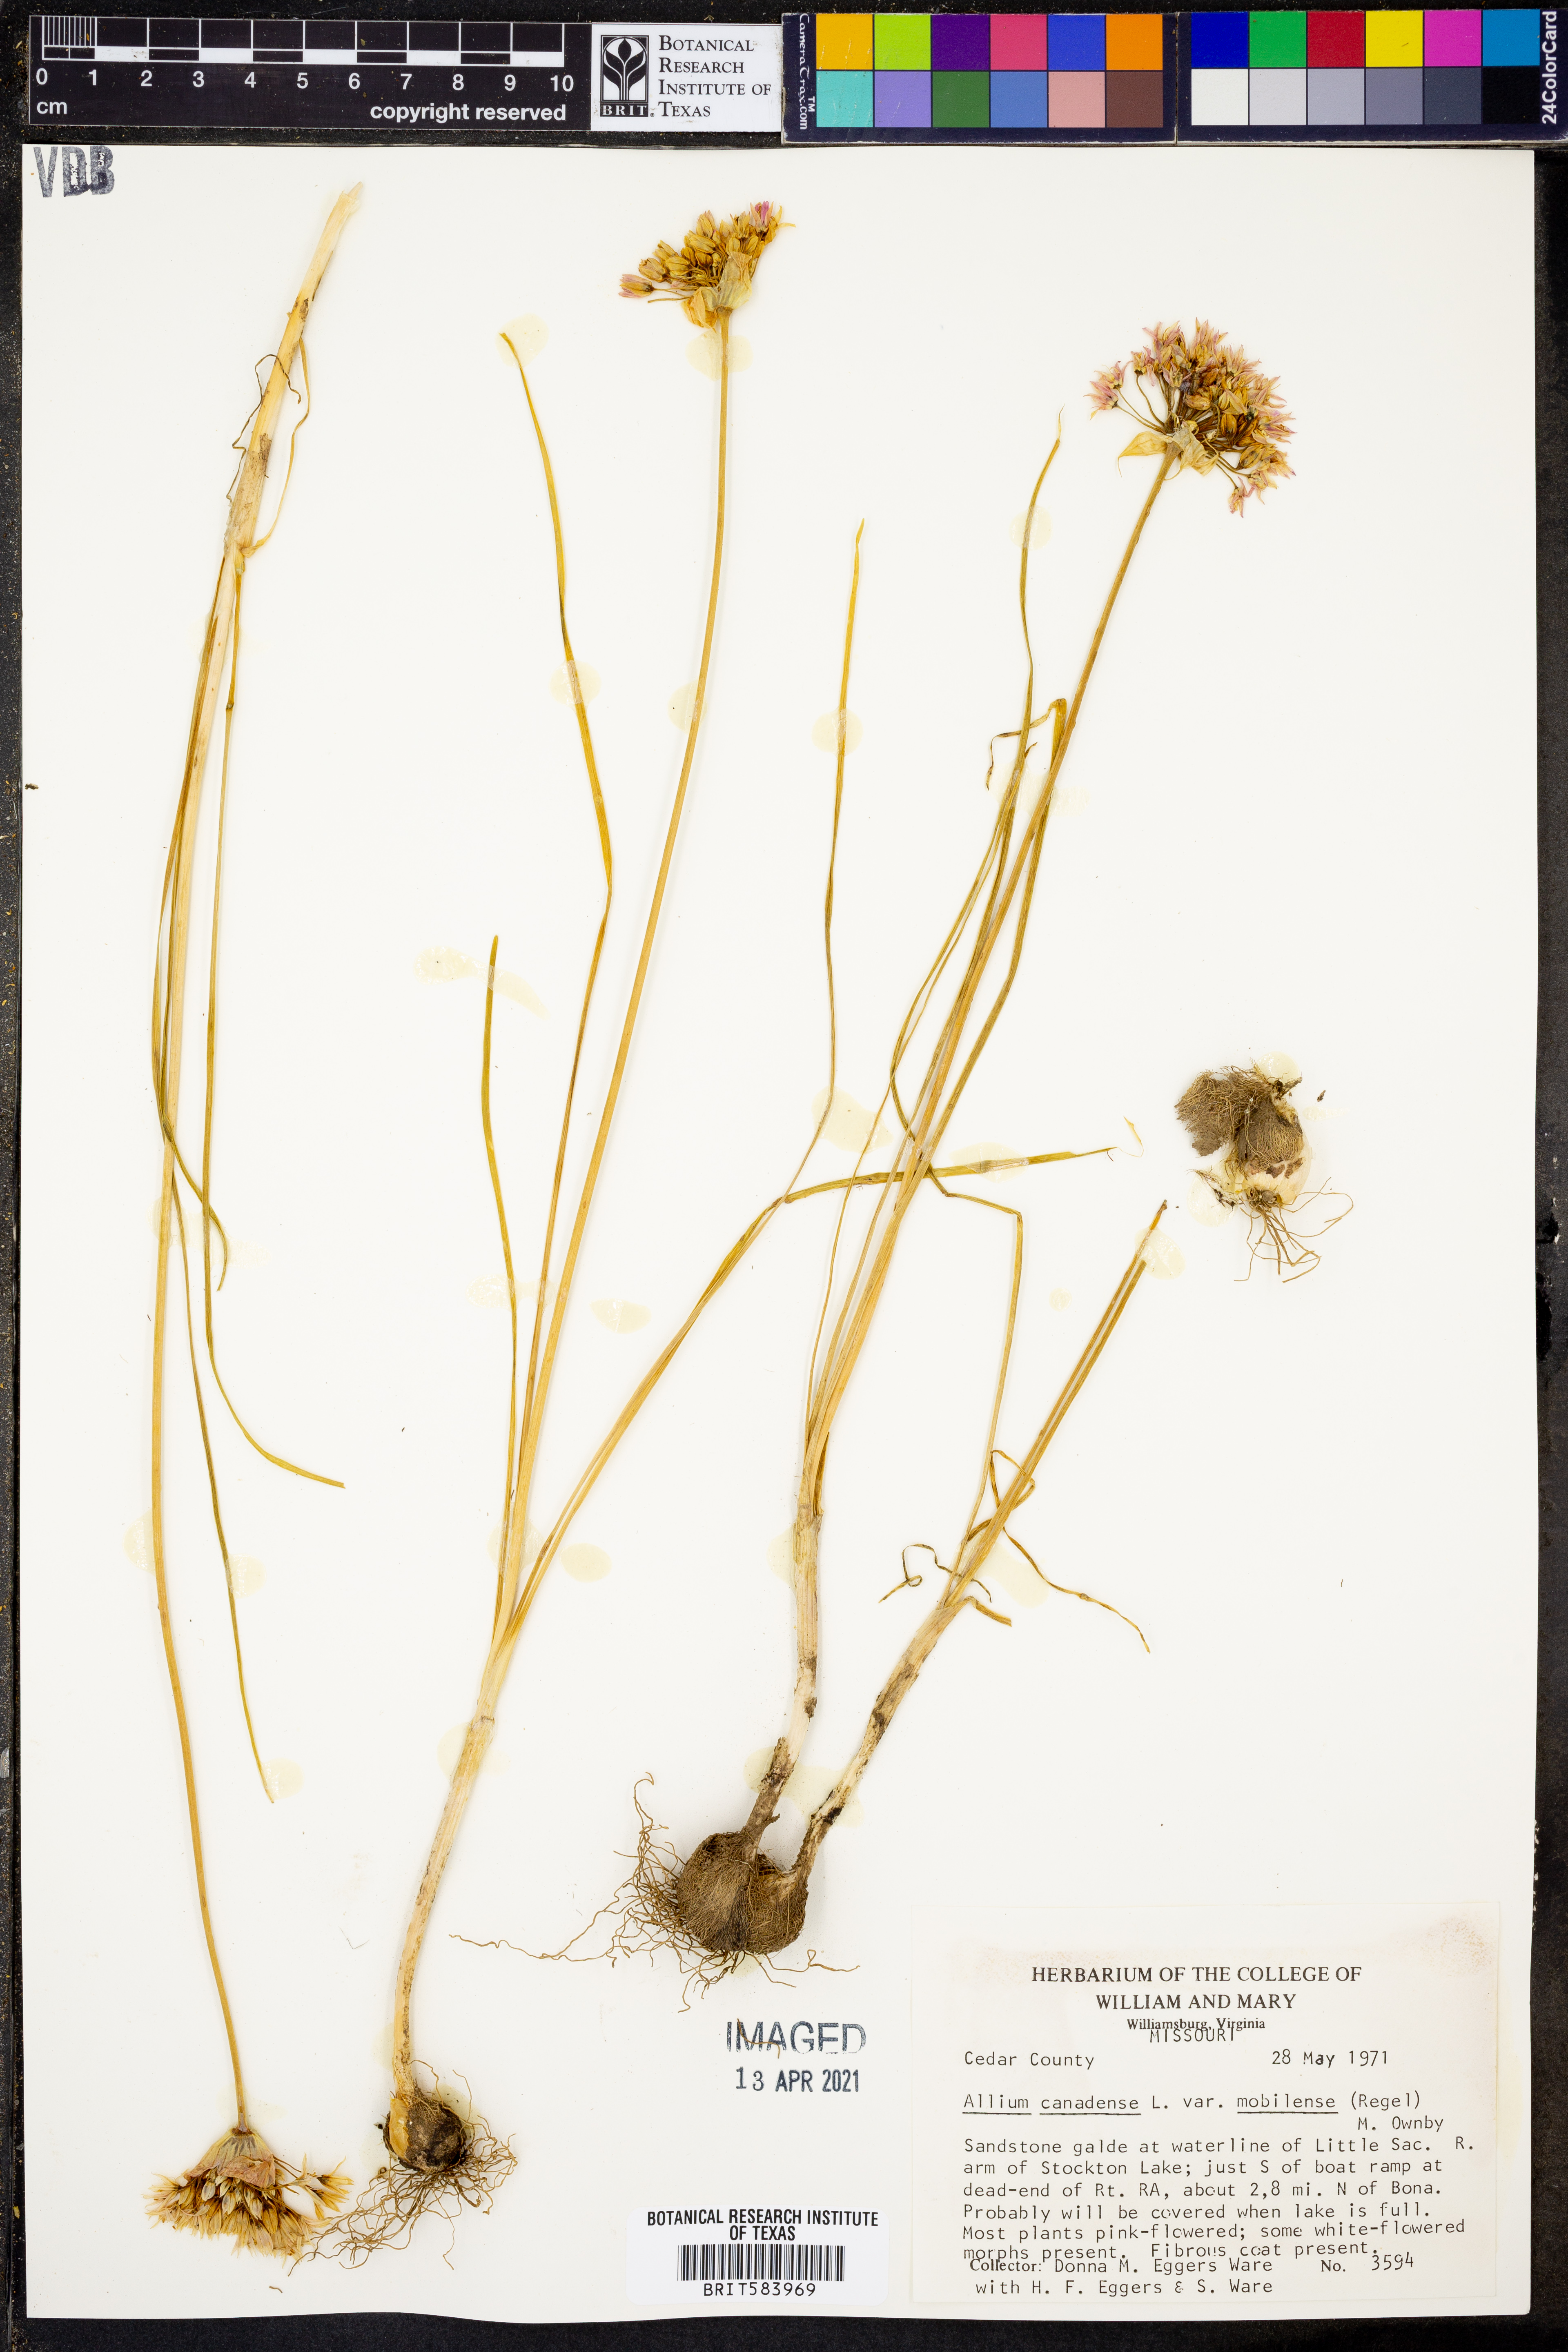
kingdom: Plantae
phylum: Tracheophyta
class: Liliopsida
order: Asparagales
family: Amaryllidaceae
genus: Allium
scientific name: Allium canadense
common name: Meadow garlic
